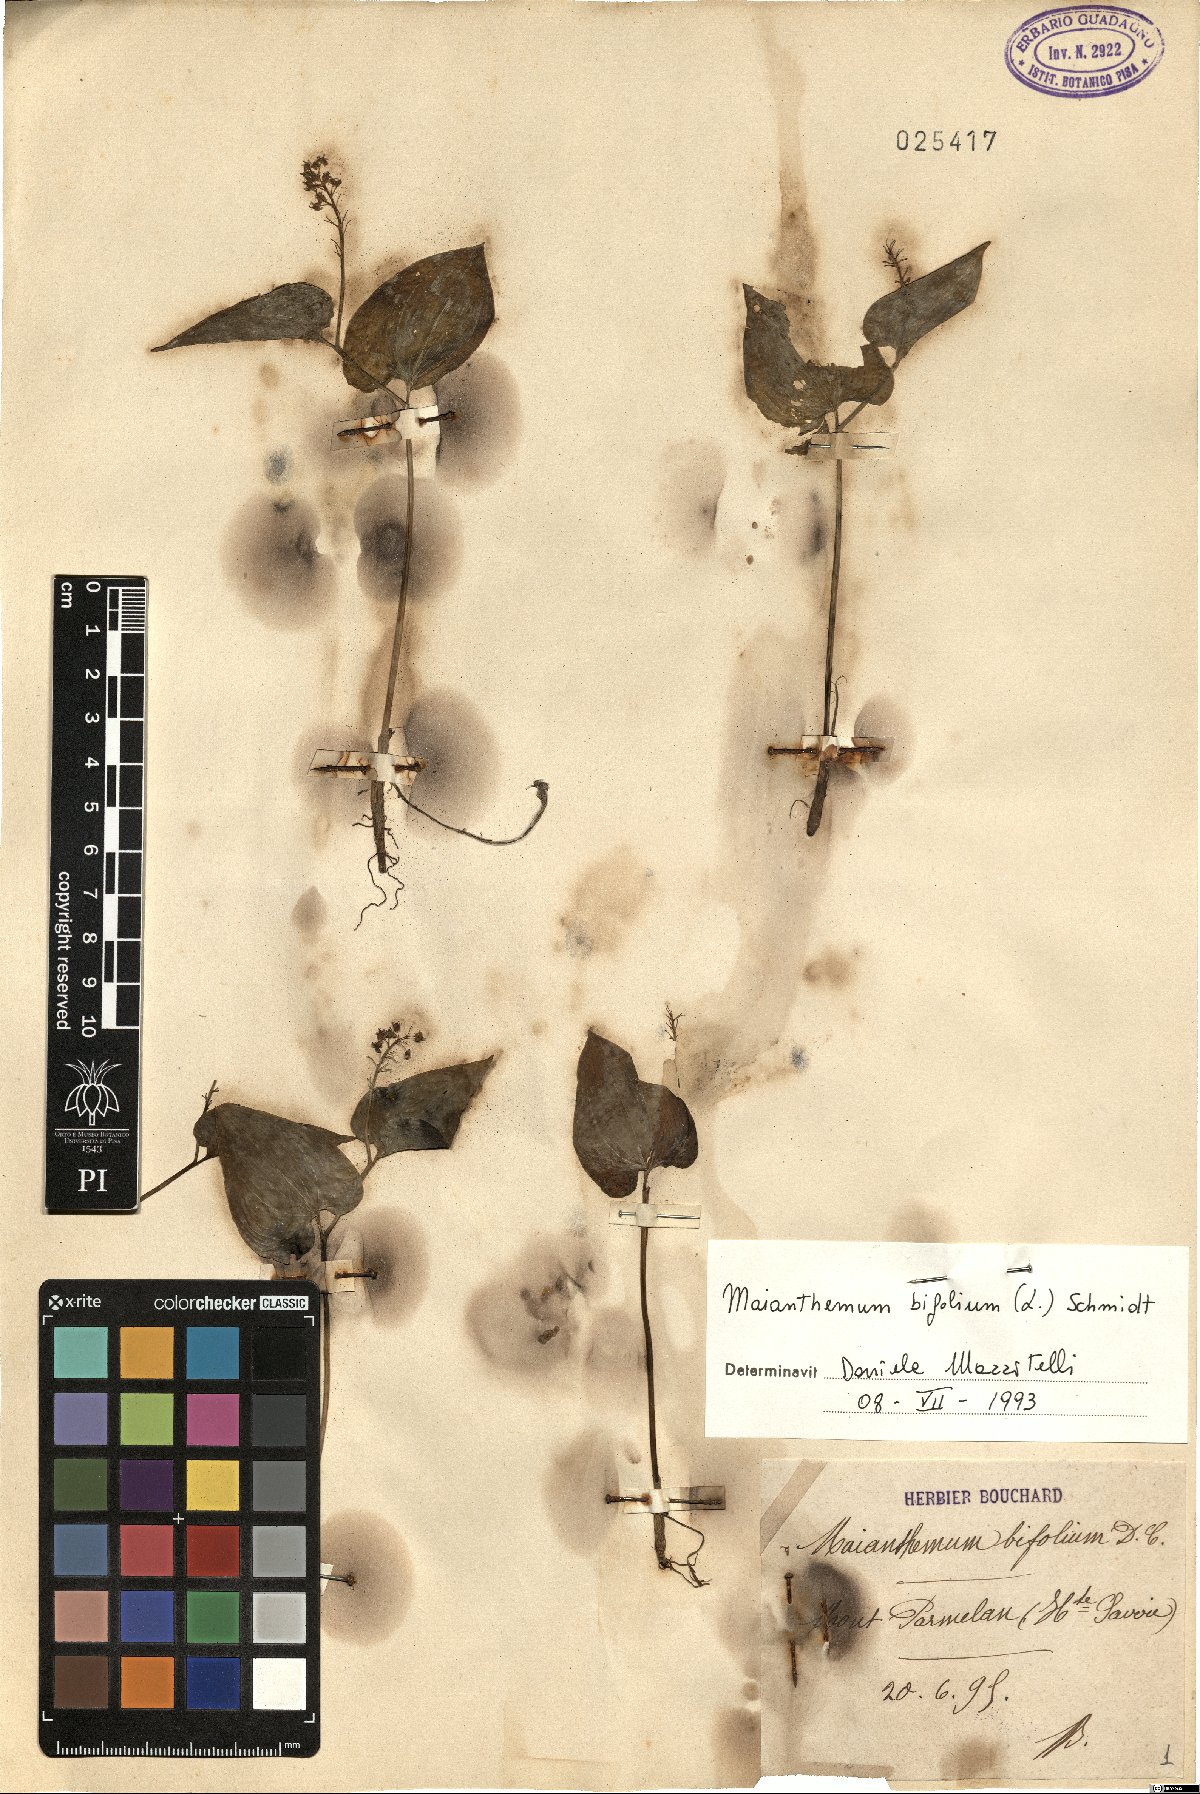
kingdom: Plantae
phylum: Tracheophyta
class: Liliopsida
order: Asparagales
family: Asparagaceae
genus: Maianthemum
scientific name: Maianthemum bifolium
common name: May lily
